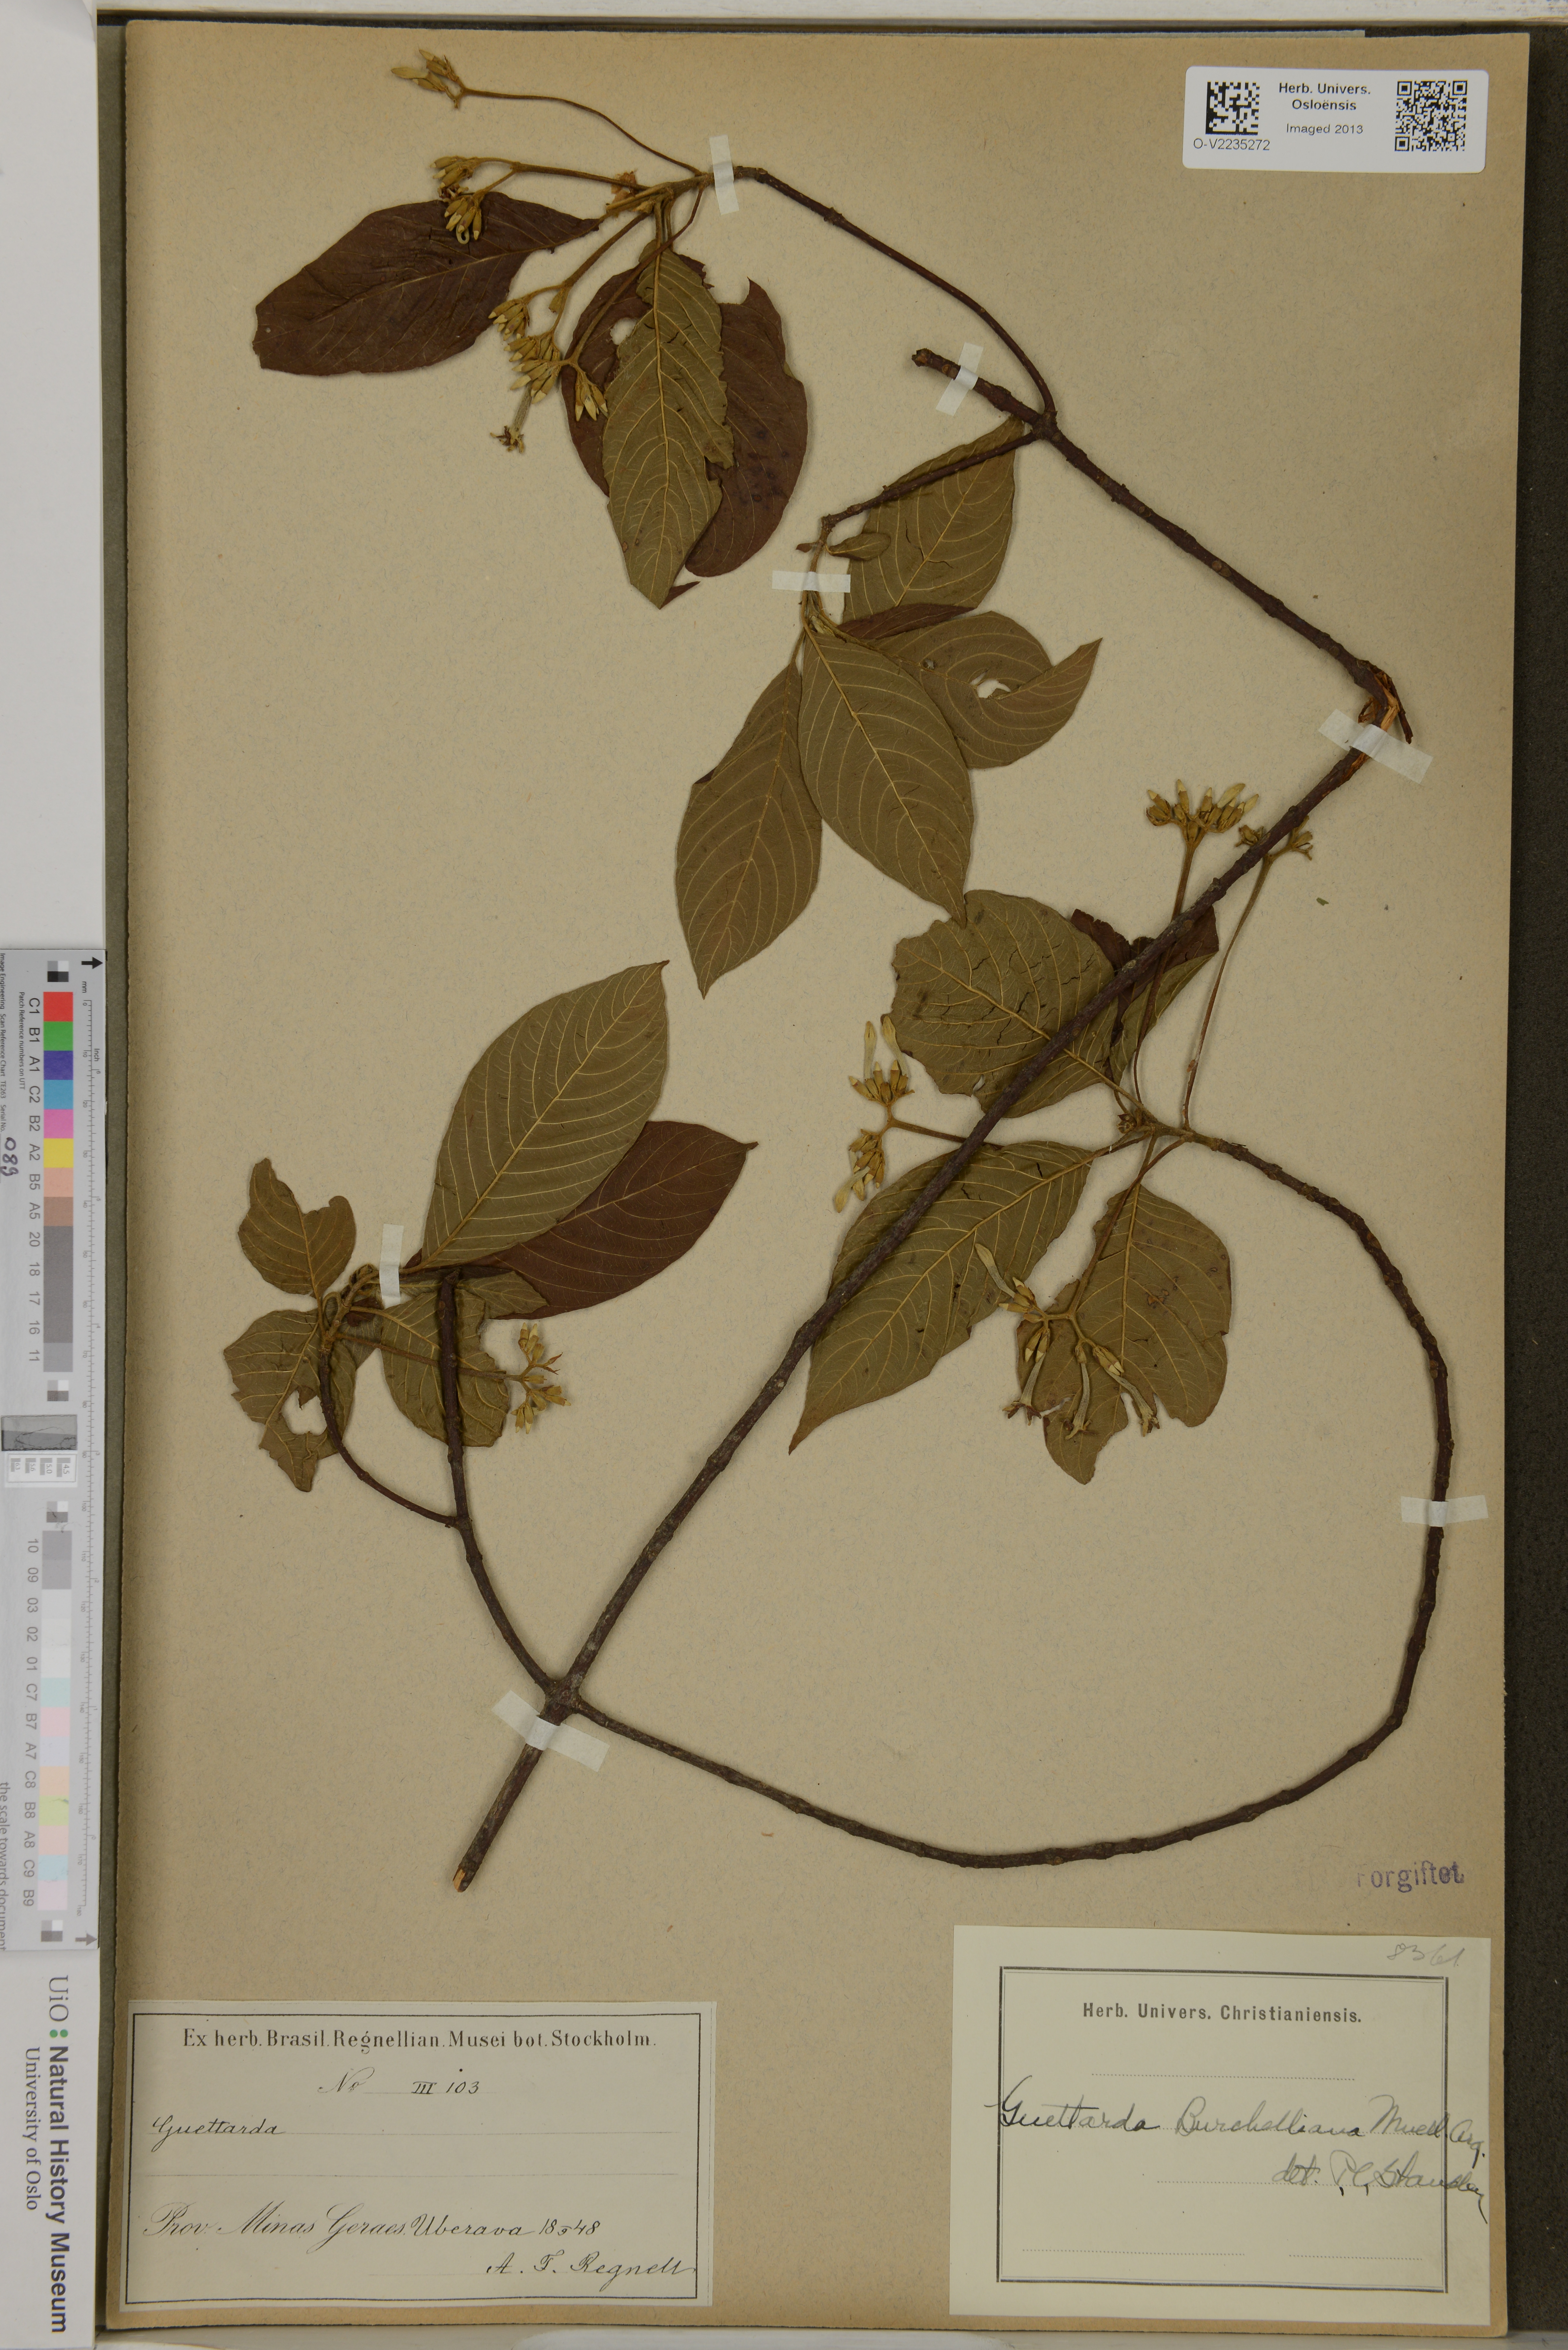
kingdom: Plantae
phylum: Tracheophyta
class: Magnoliopsida
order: Gentianales
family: Rubiaceae
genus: Guettarda
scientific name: Guettarda pohliana
